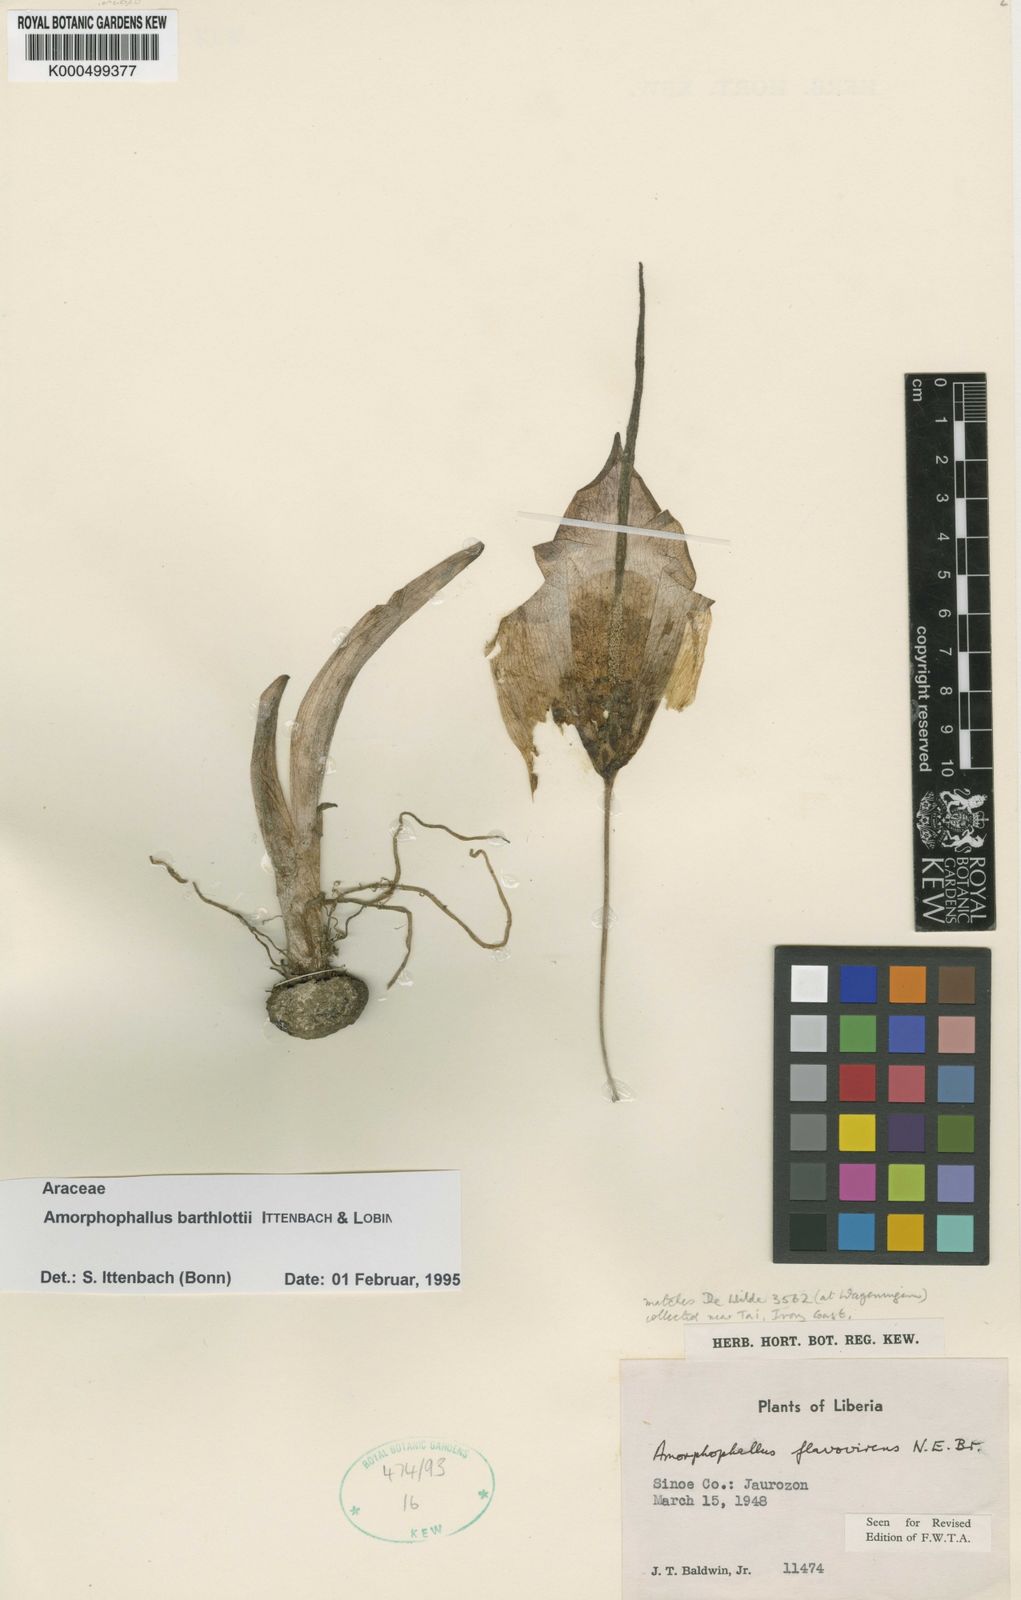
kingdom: Plantae
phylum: Tracheophyta
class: Liliopsida
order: Alismatales
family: Araceae
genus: Amorphophallus
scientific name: Amorphophallus barthlottii
